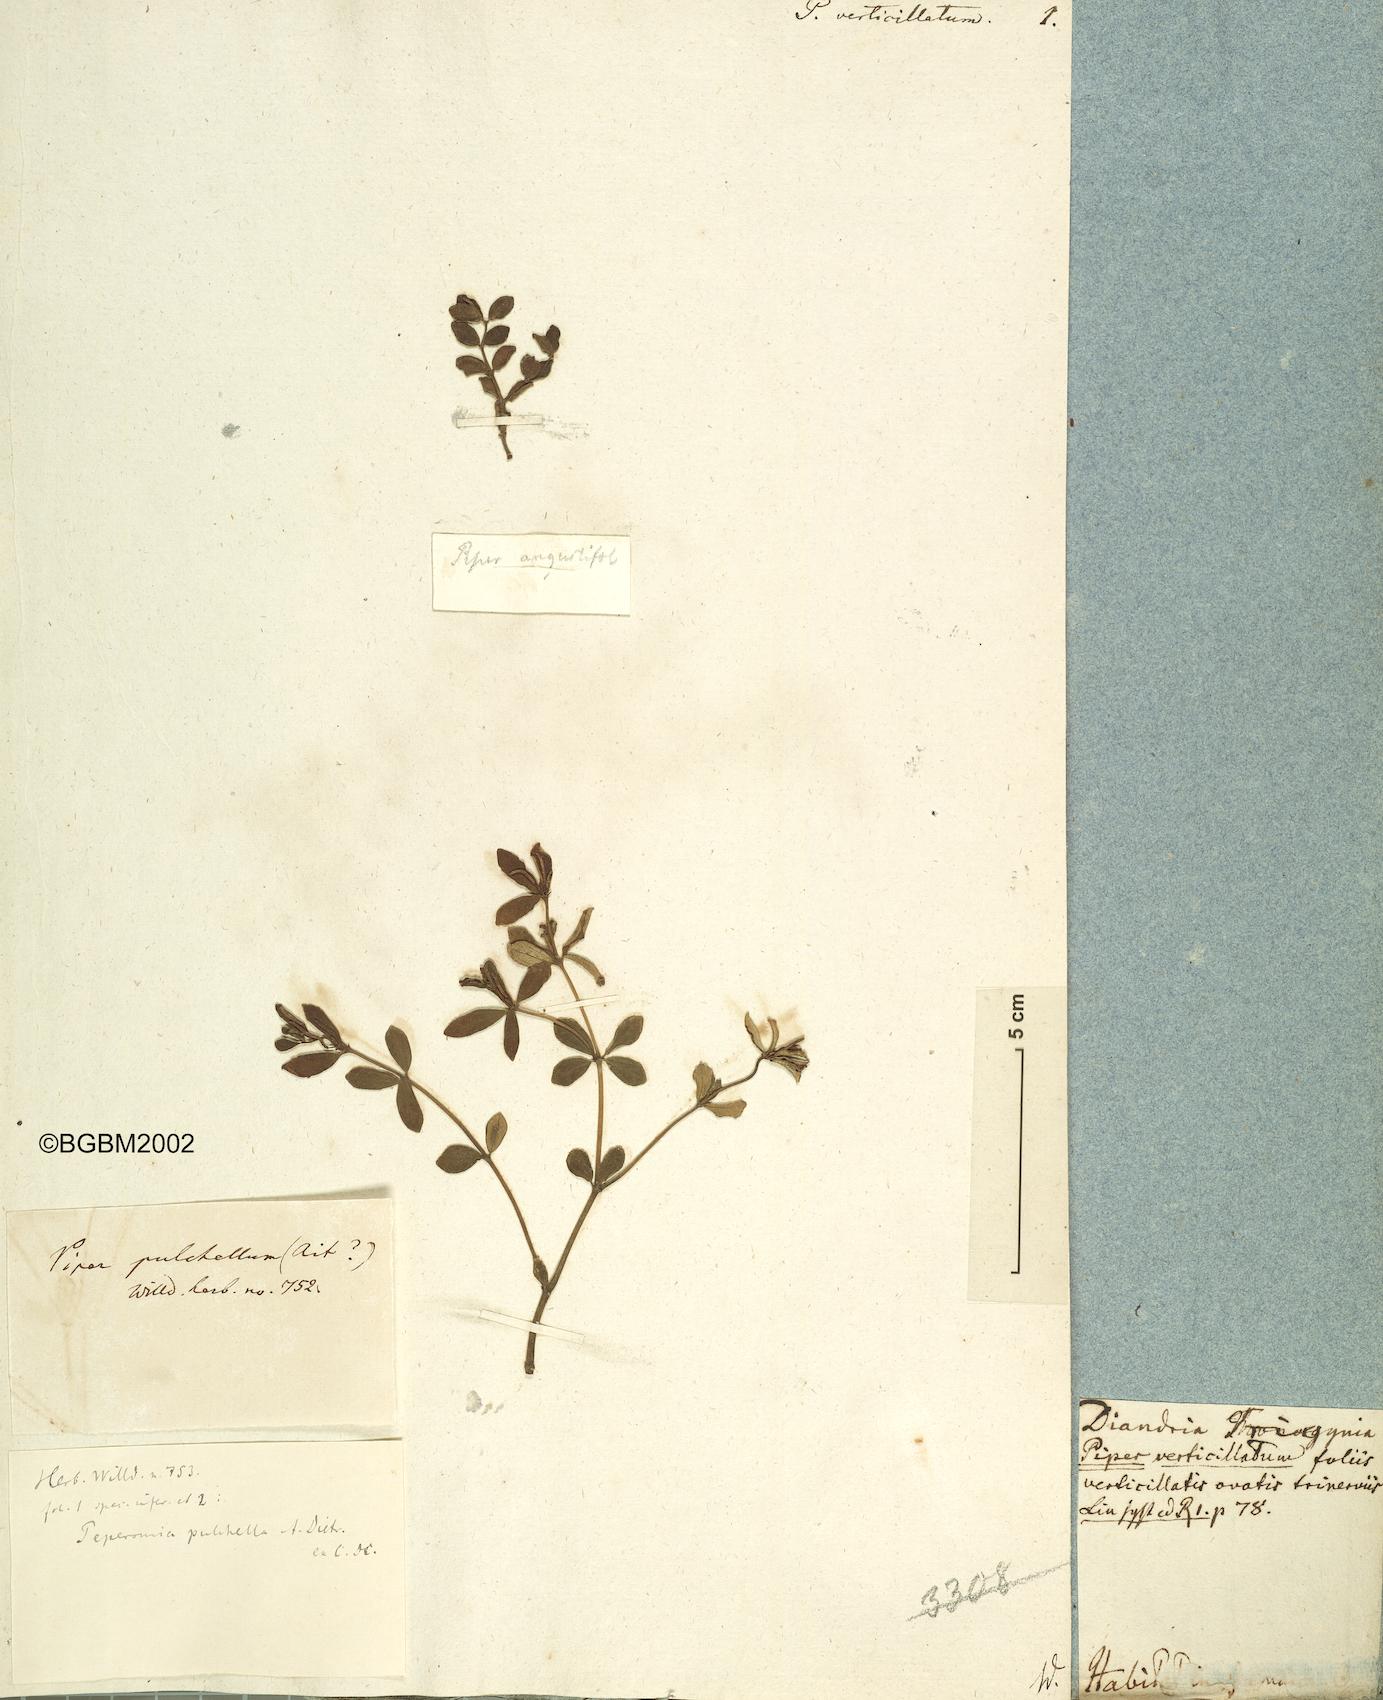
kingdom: Plantae
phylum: Tracheophyta
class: Magnoliopsida
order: Piperales
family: Piperaceae
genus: Peperomia
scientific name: Peperomia verticillata
